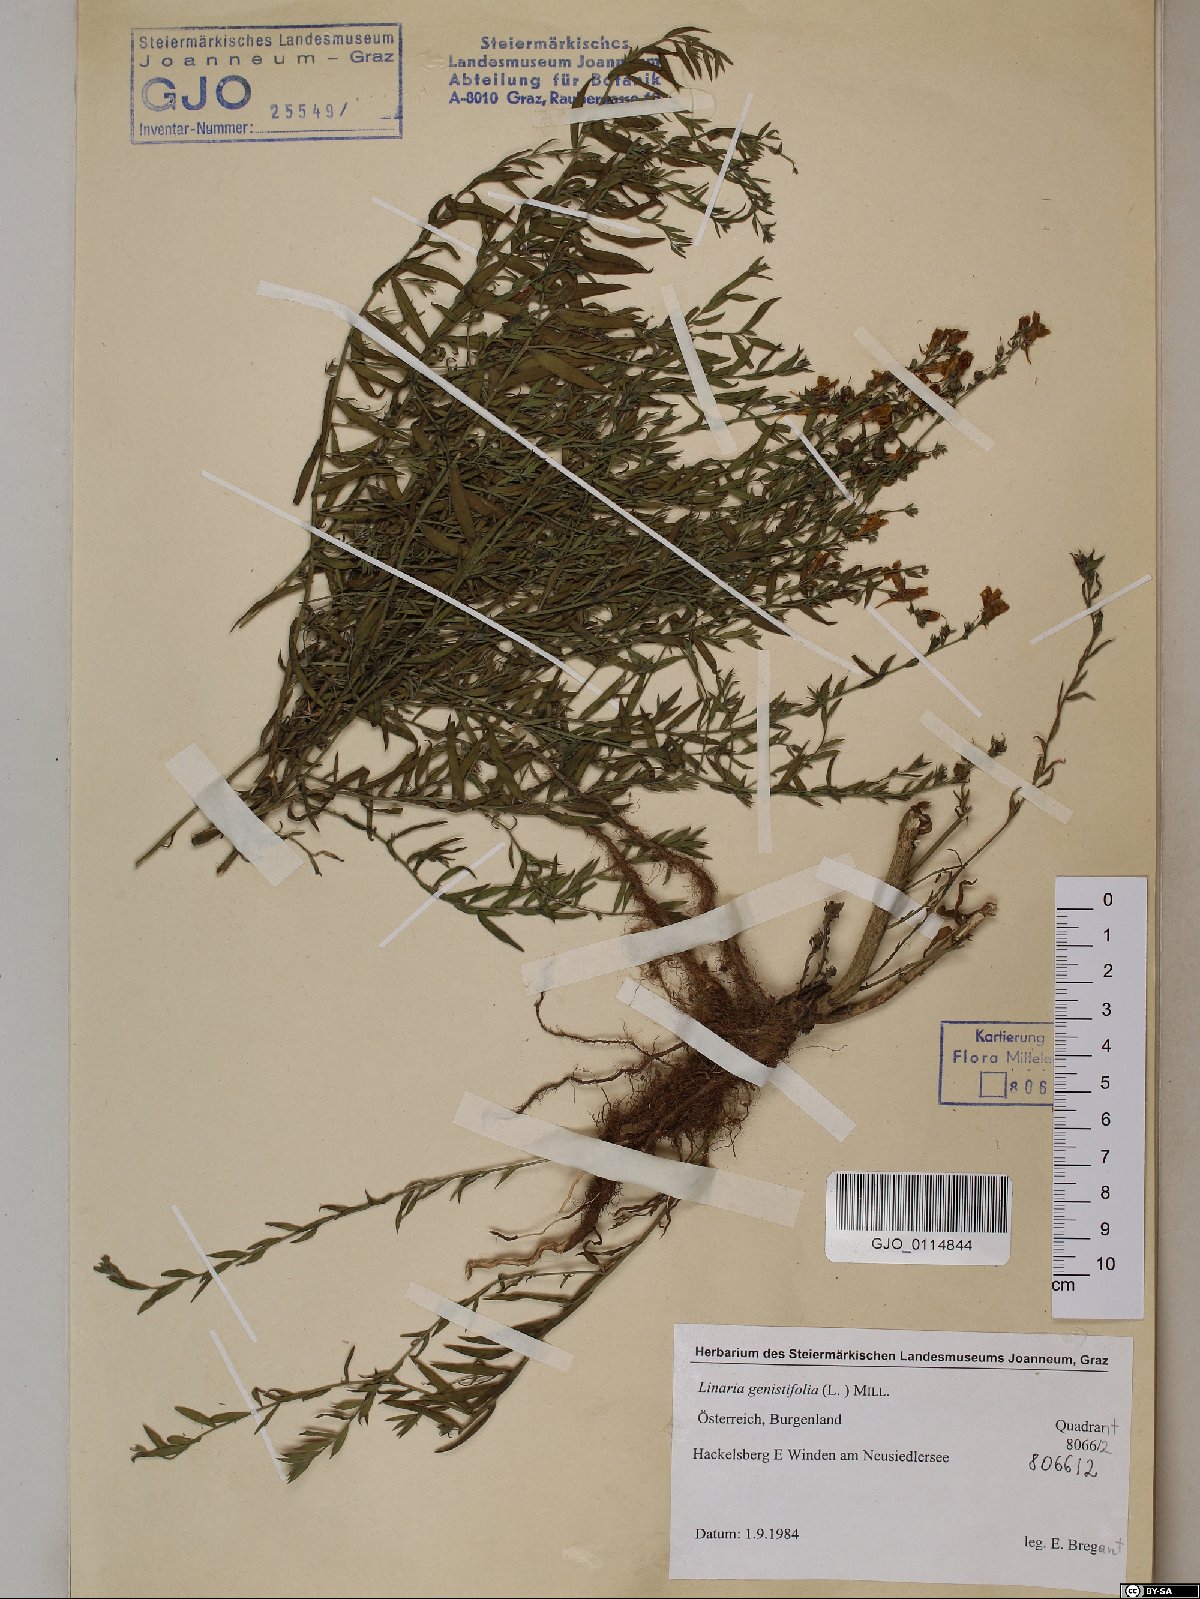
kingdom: Plantae
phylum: Tracheophyta
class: Magnoliopsida
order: Lamiales
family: Plantaginaceae
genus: Linaria
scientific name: Linaria genistifolia
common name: Broomleaf toadflax
